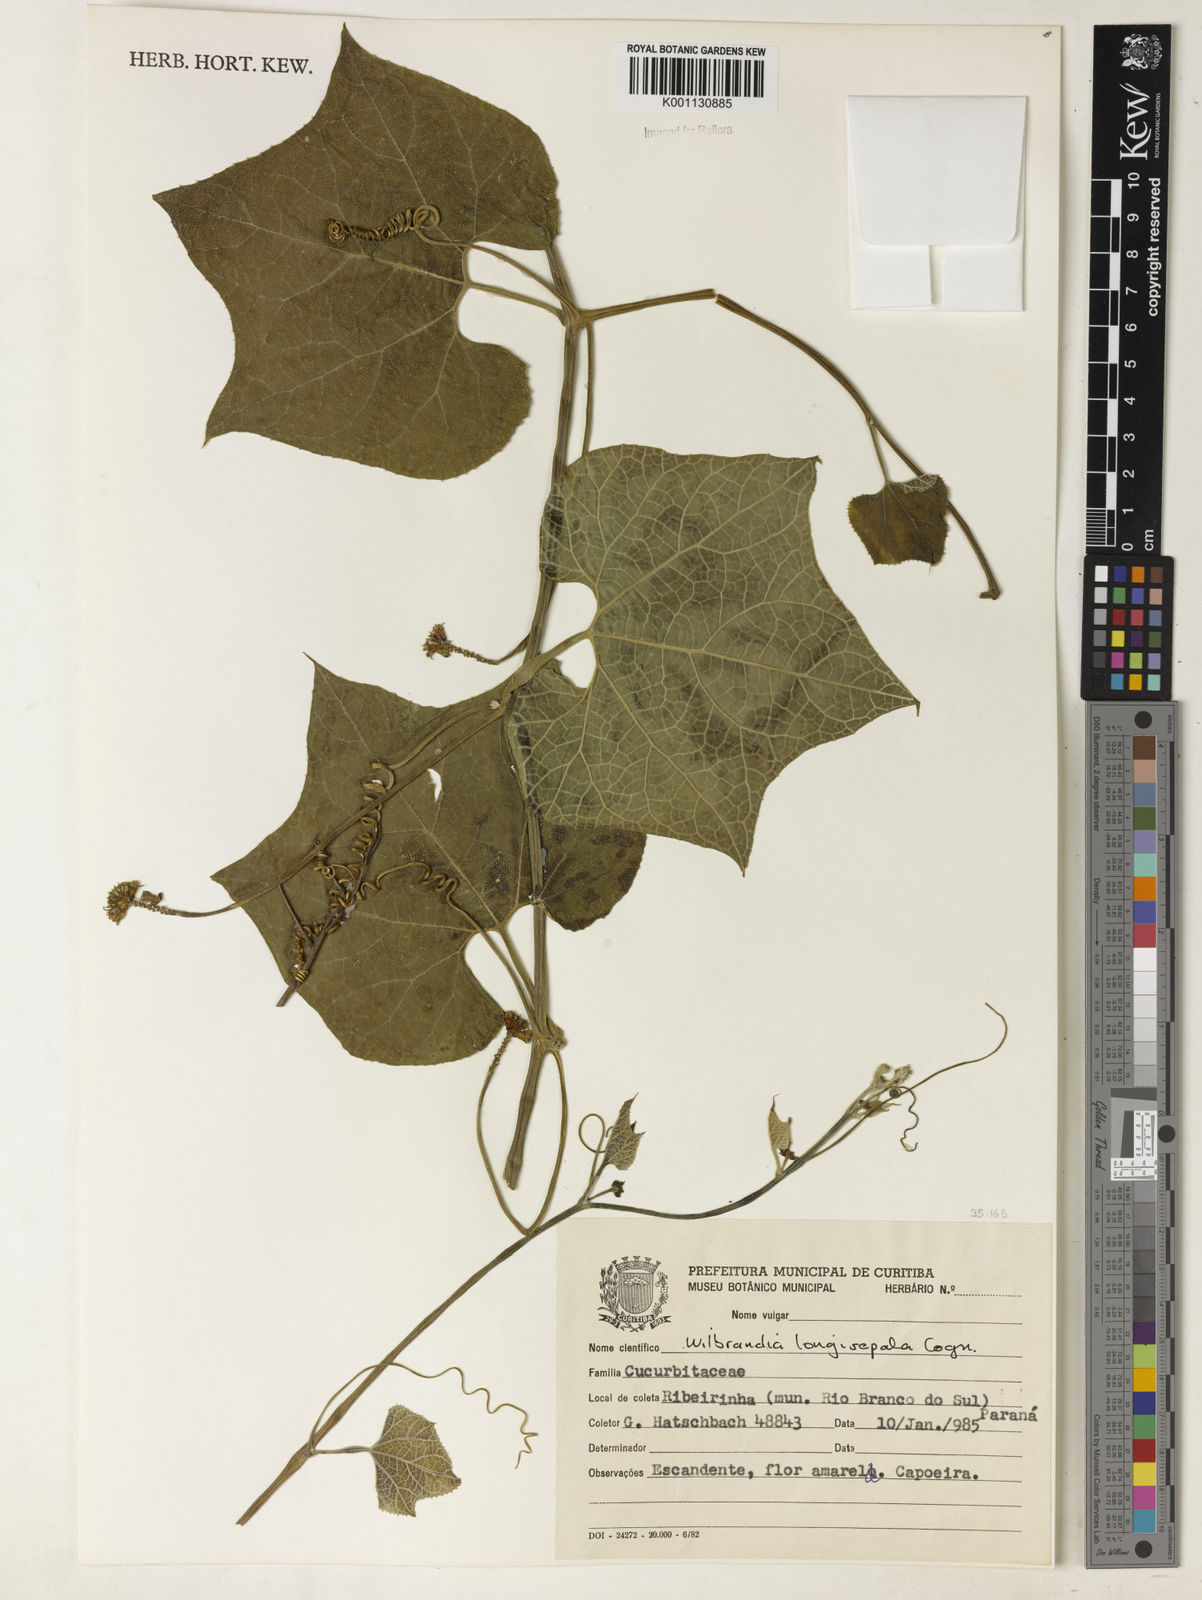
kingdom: Plantae
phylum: Tracheophyta
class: Magnoliopsida
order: Cucurbitales
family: Cucurbitaceae
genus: Wilbrandia
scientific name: Wilbrandia longisepala
